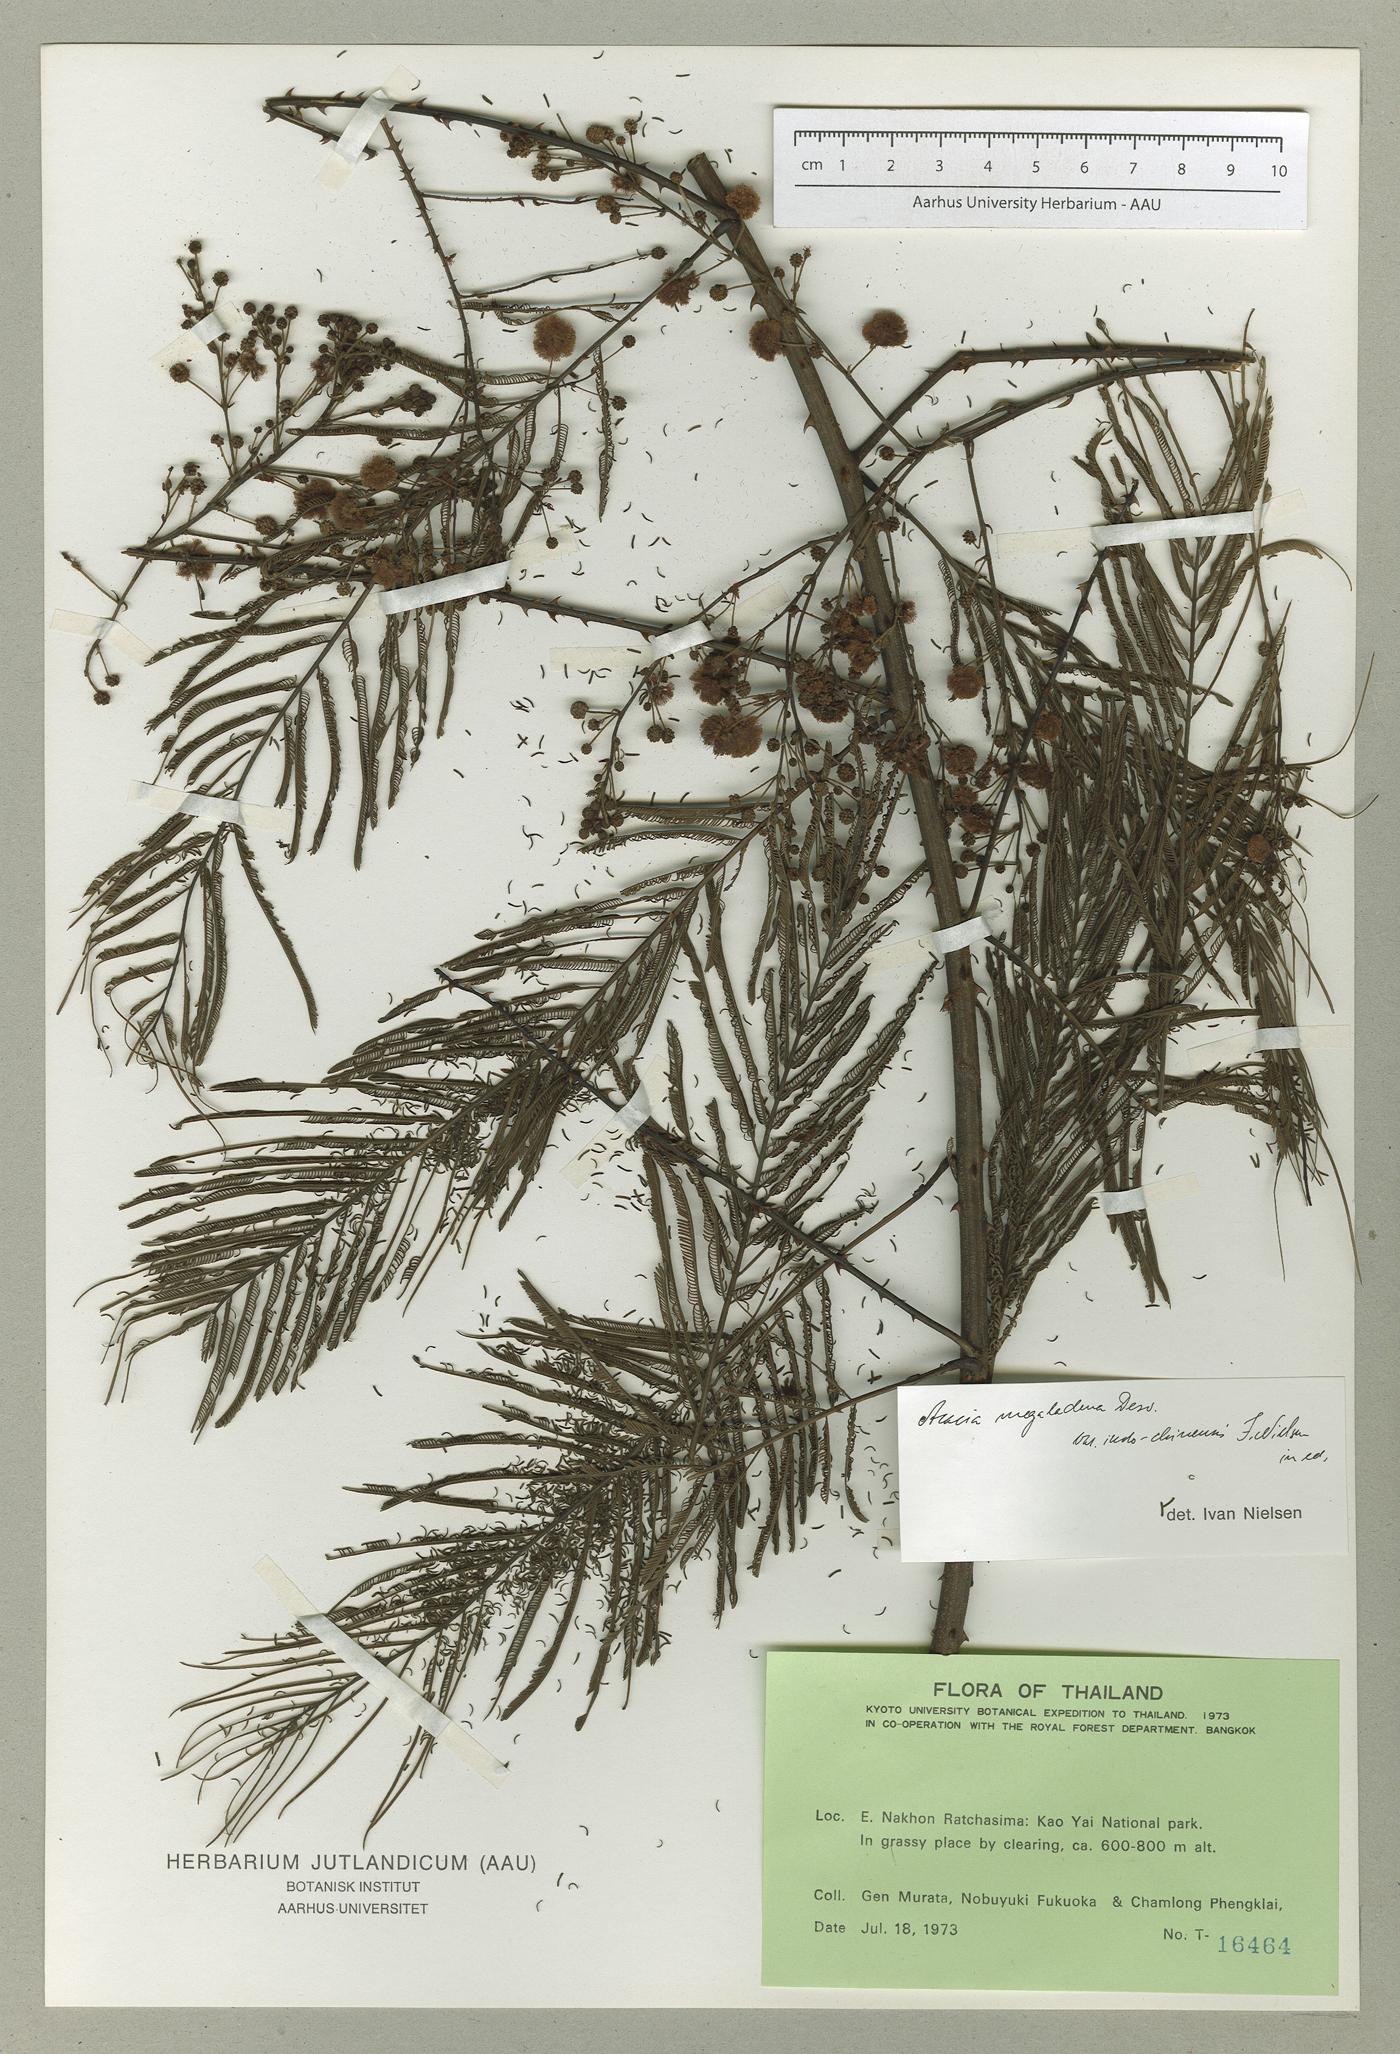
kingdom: Plantae
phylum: Tracheophyta
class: Magnoliopsida
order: Fabales
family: Fabaceae
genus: Senegalia
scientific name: Senegalia megaladena
